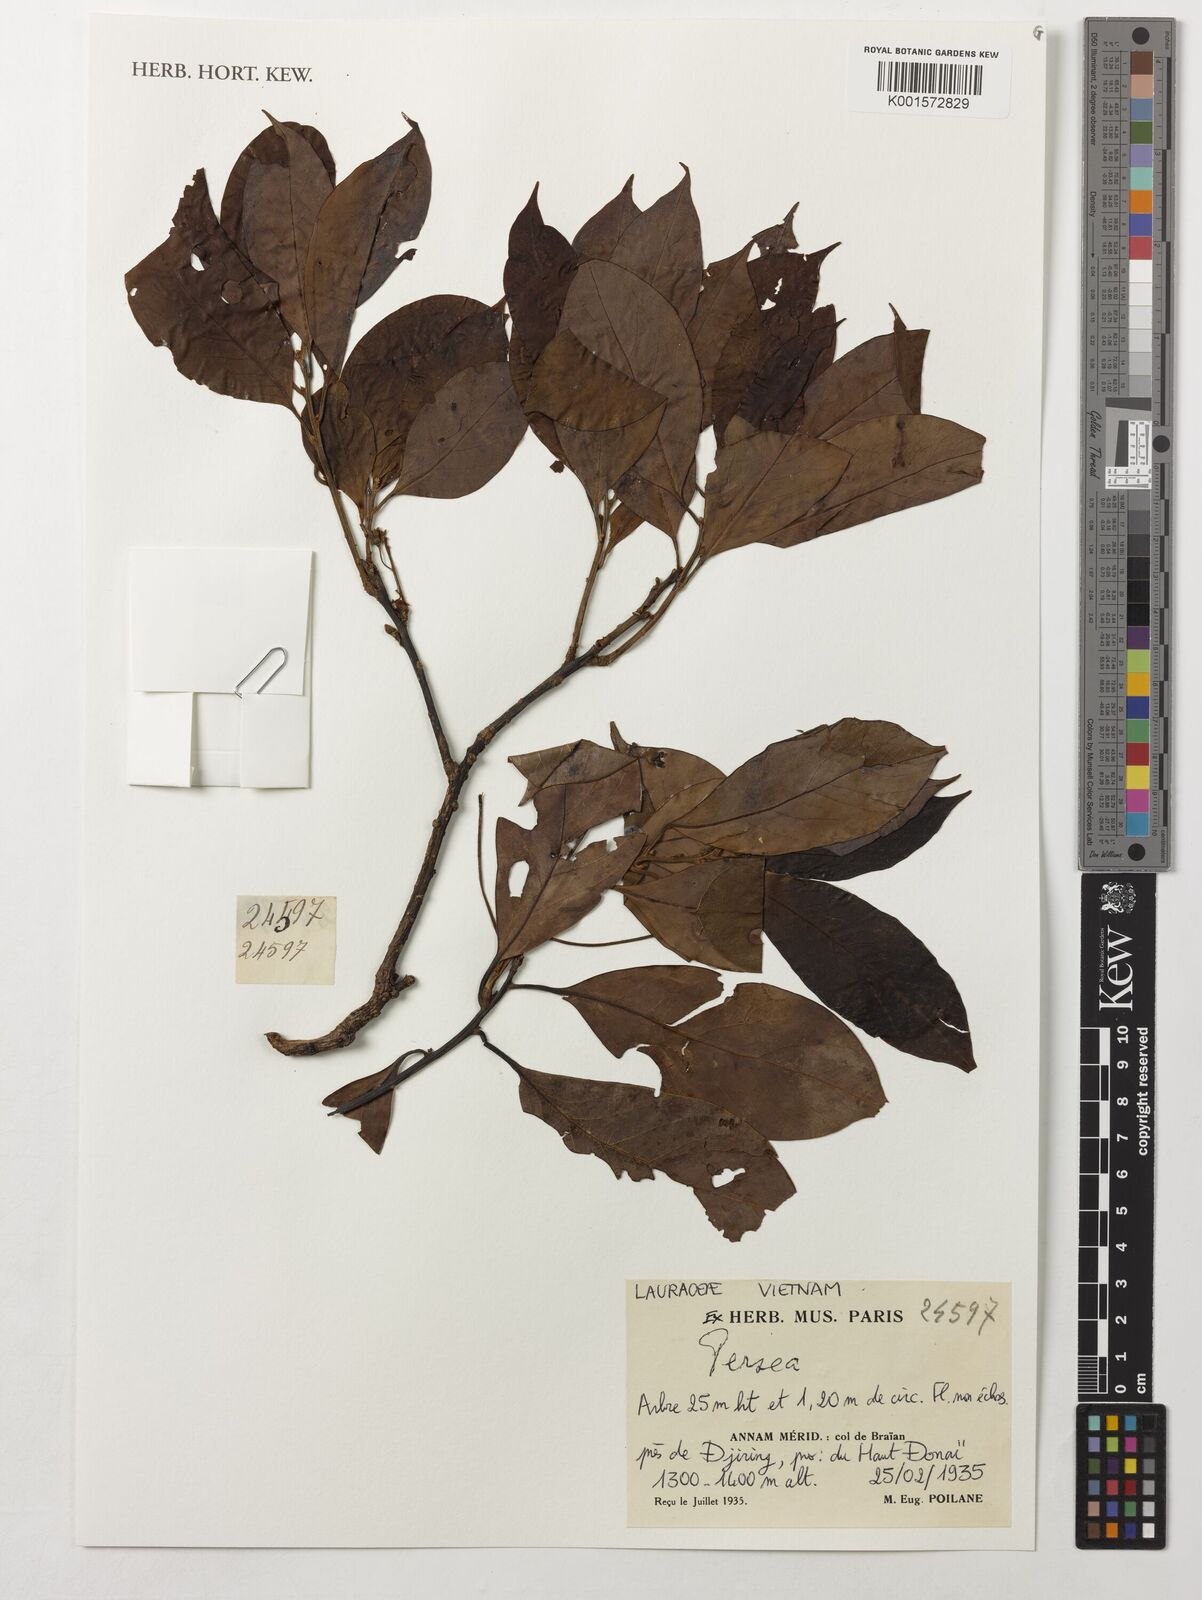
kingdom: Plantae
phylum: Tracheophyta
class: Magnoliopsida
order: Laurales
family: Lauraceae
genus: Persea
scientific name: Persea
